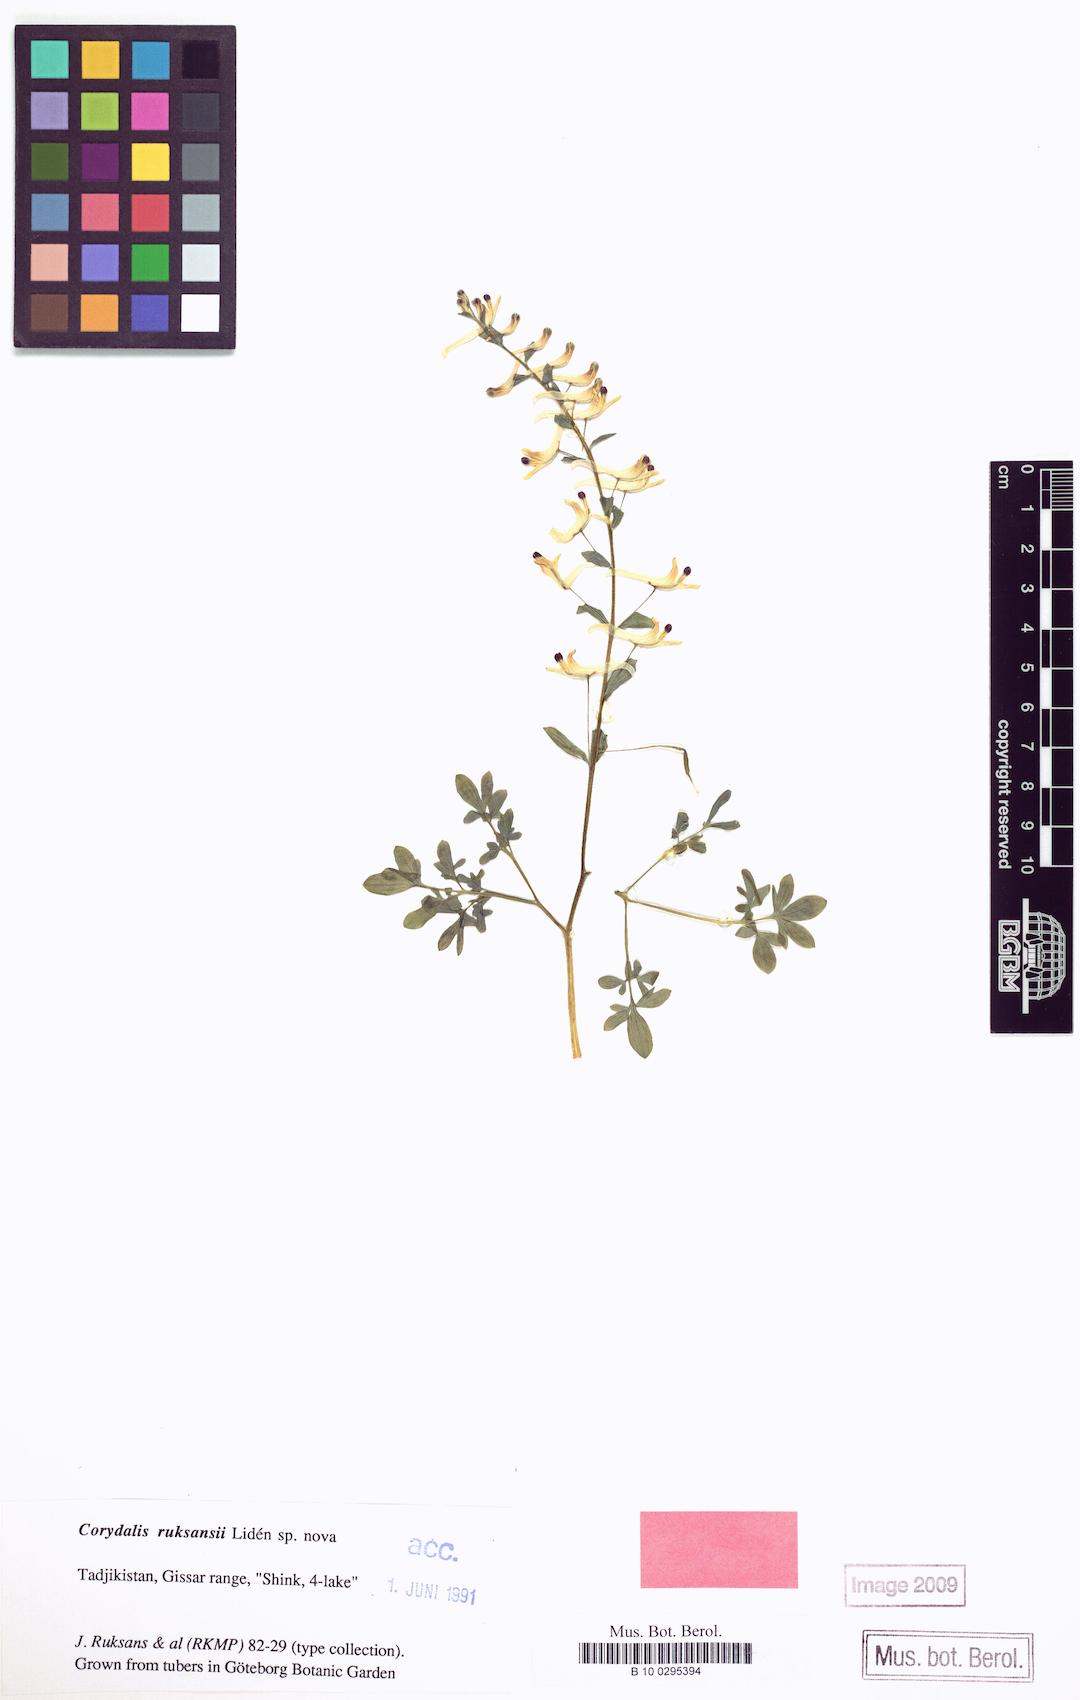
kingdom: Plantae
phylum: Tracheophyta
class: Magnoliopsida
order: Ranunculales
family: Papaveraceae
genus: Corydalis
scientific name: Corydalis ruksansii
